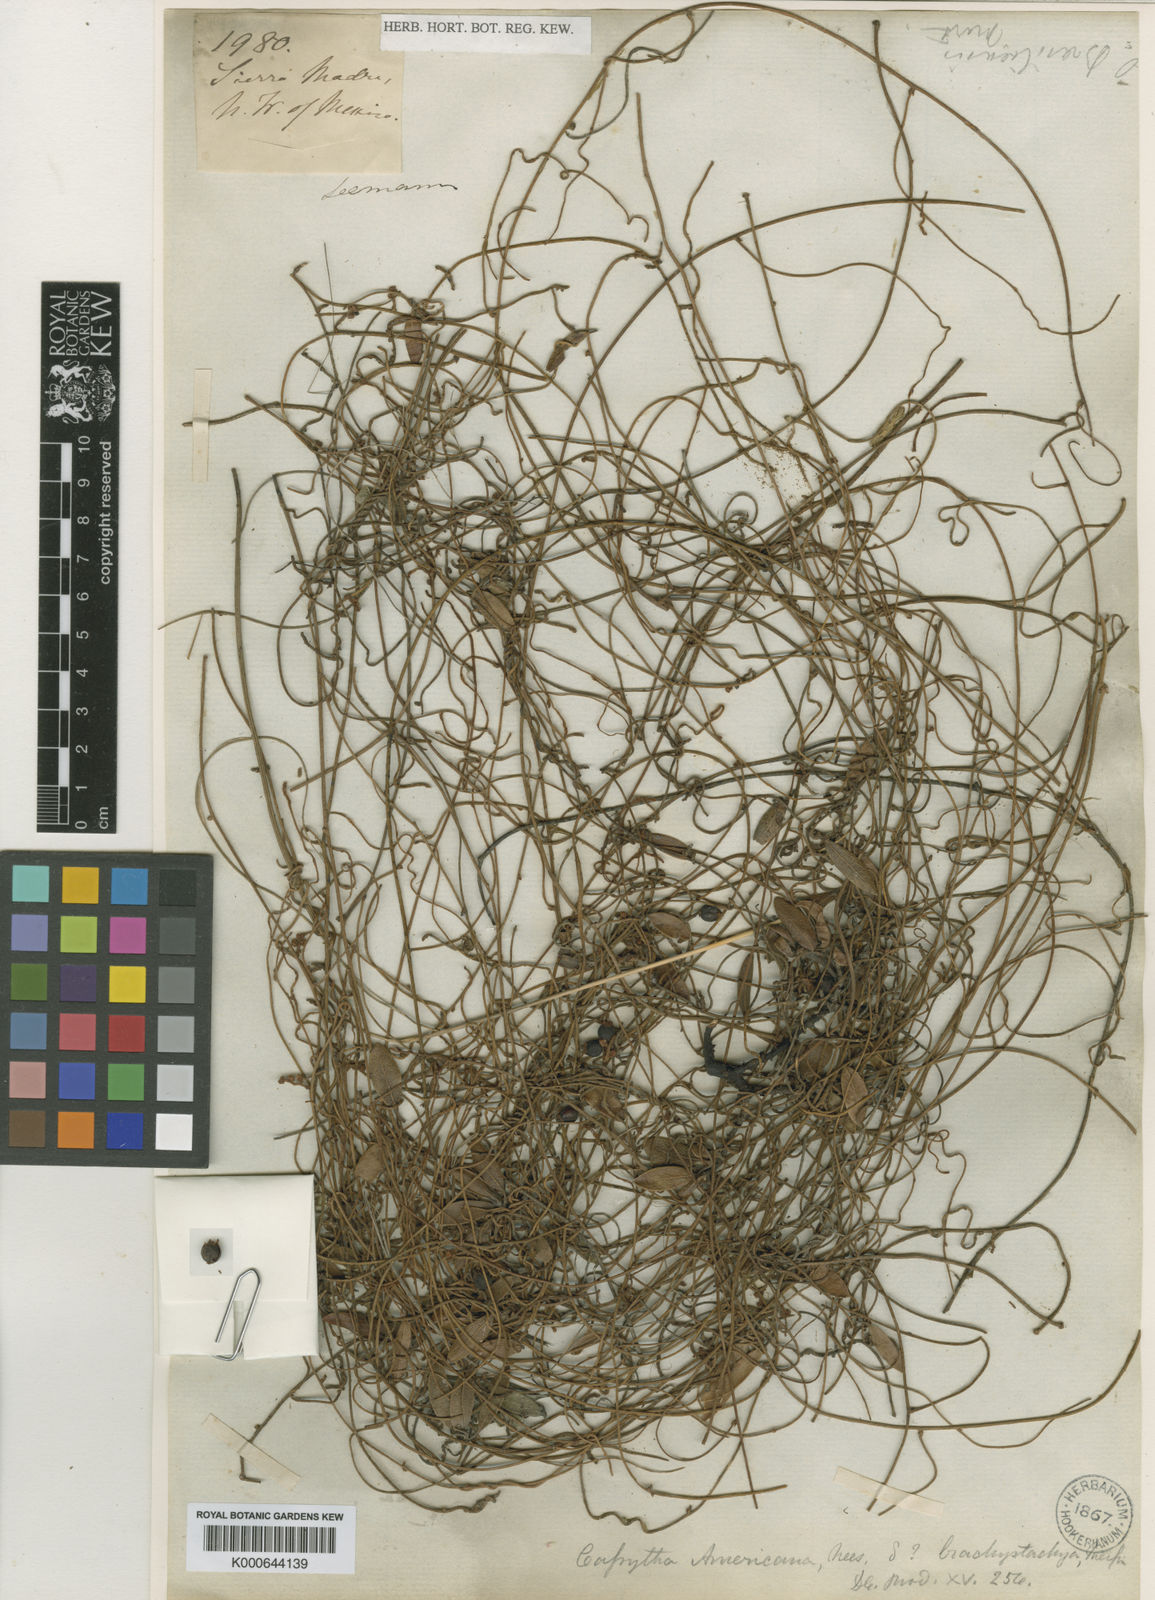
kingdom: Plantae
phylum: Tracheophyta
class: Magnoliopsida
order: Laurales
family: Lauraceae
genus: Cassytha
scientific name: Cassytha filiformis
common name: Dodder-laurel
